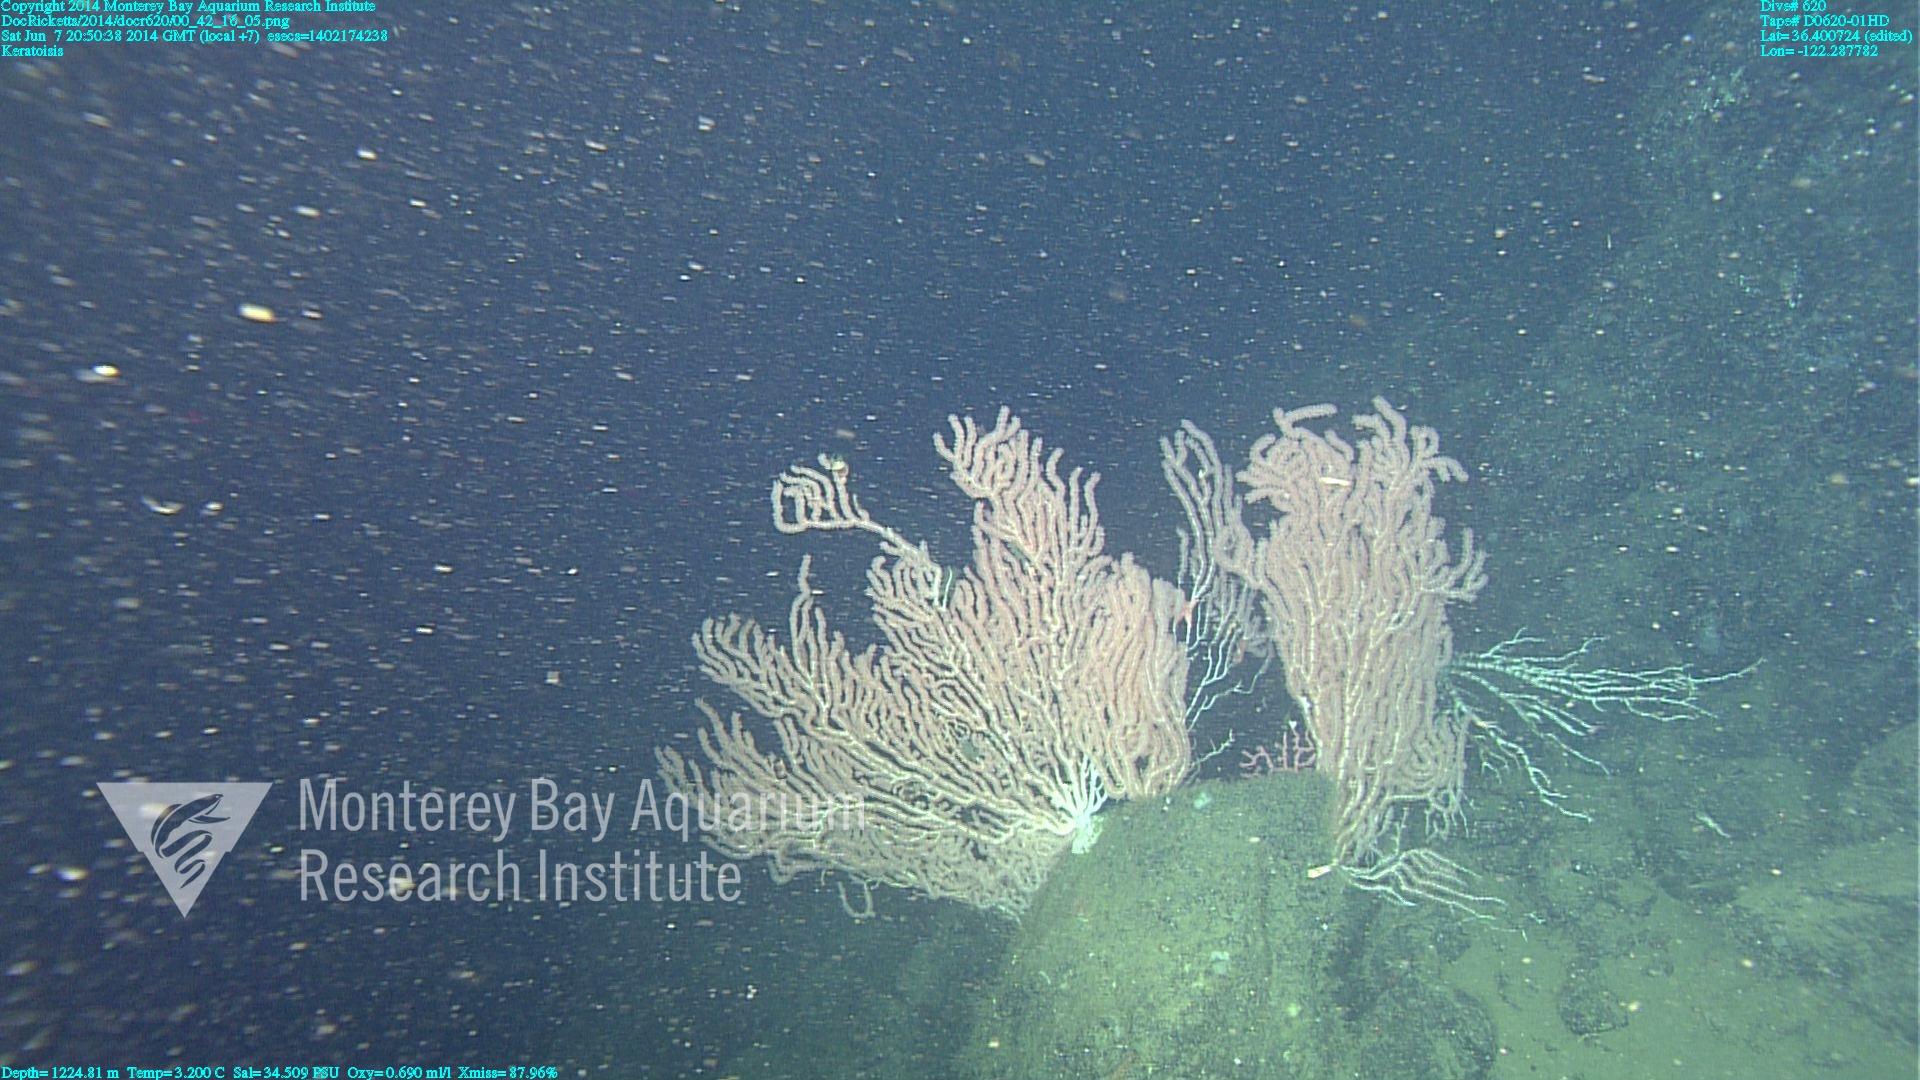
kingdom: Animalia
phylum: Cnidaria
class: Anthozoa
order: Scleralcyonacea
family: Keratoisididae
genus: Keratoisis
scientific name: Keratoisis
